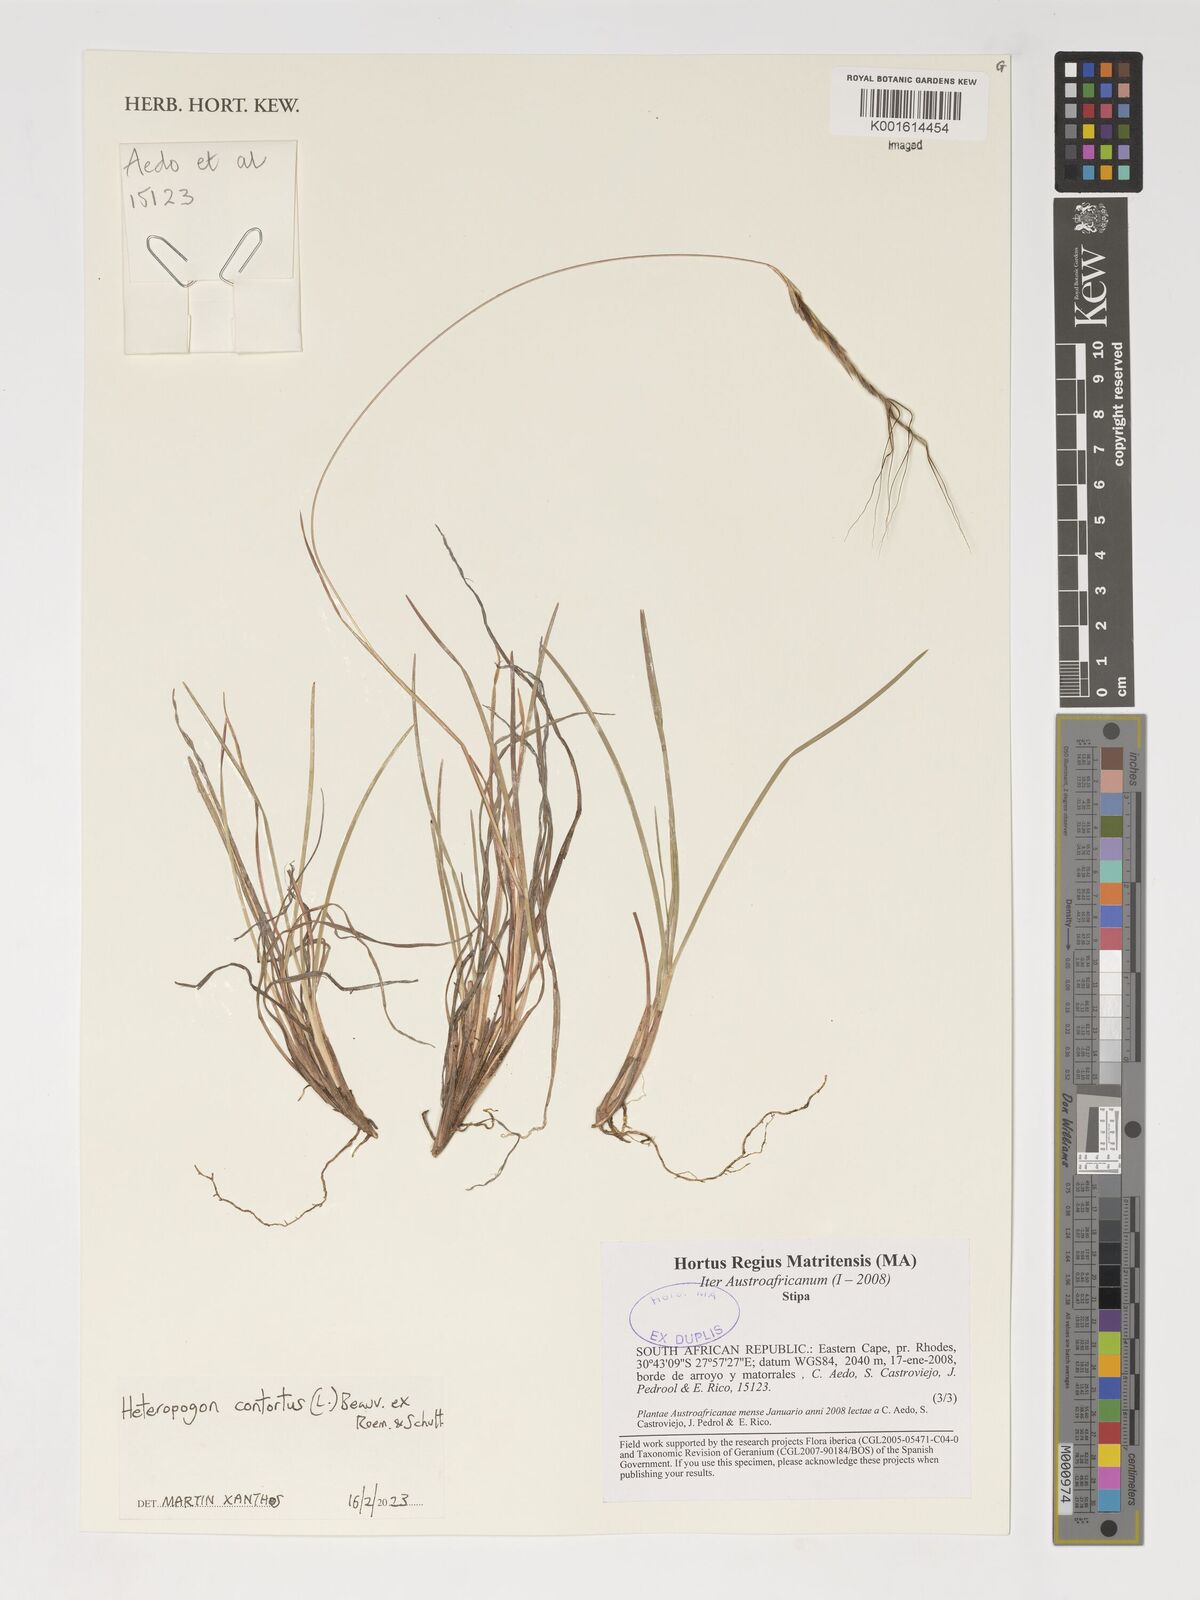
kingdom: Plantae
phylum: Tracheophyta
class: Liliopsida
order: Poales
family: Poaceae
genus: Heteropogon
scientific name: Heteropogon contortus
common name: Tanglehead
